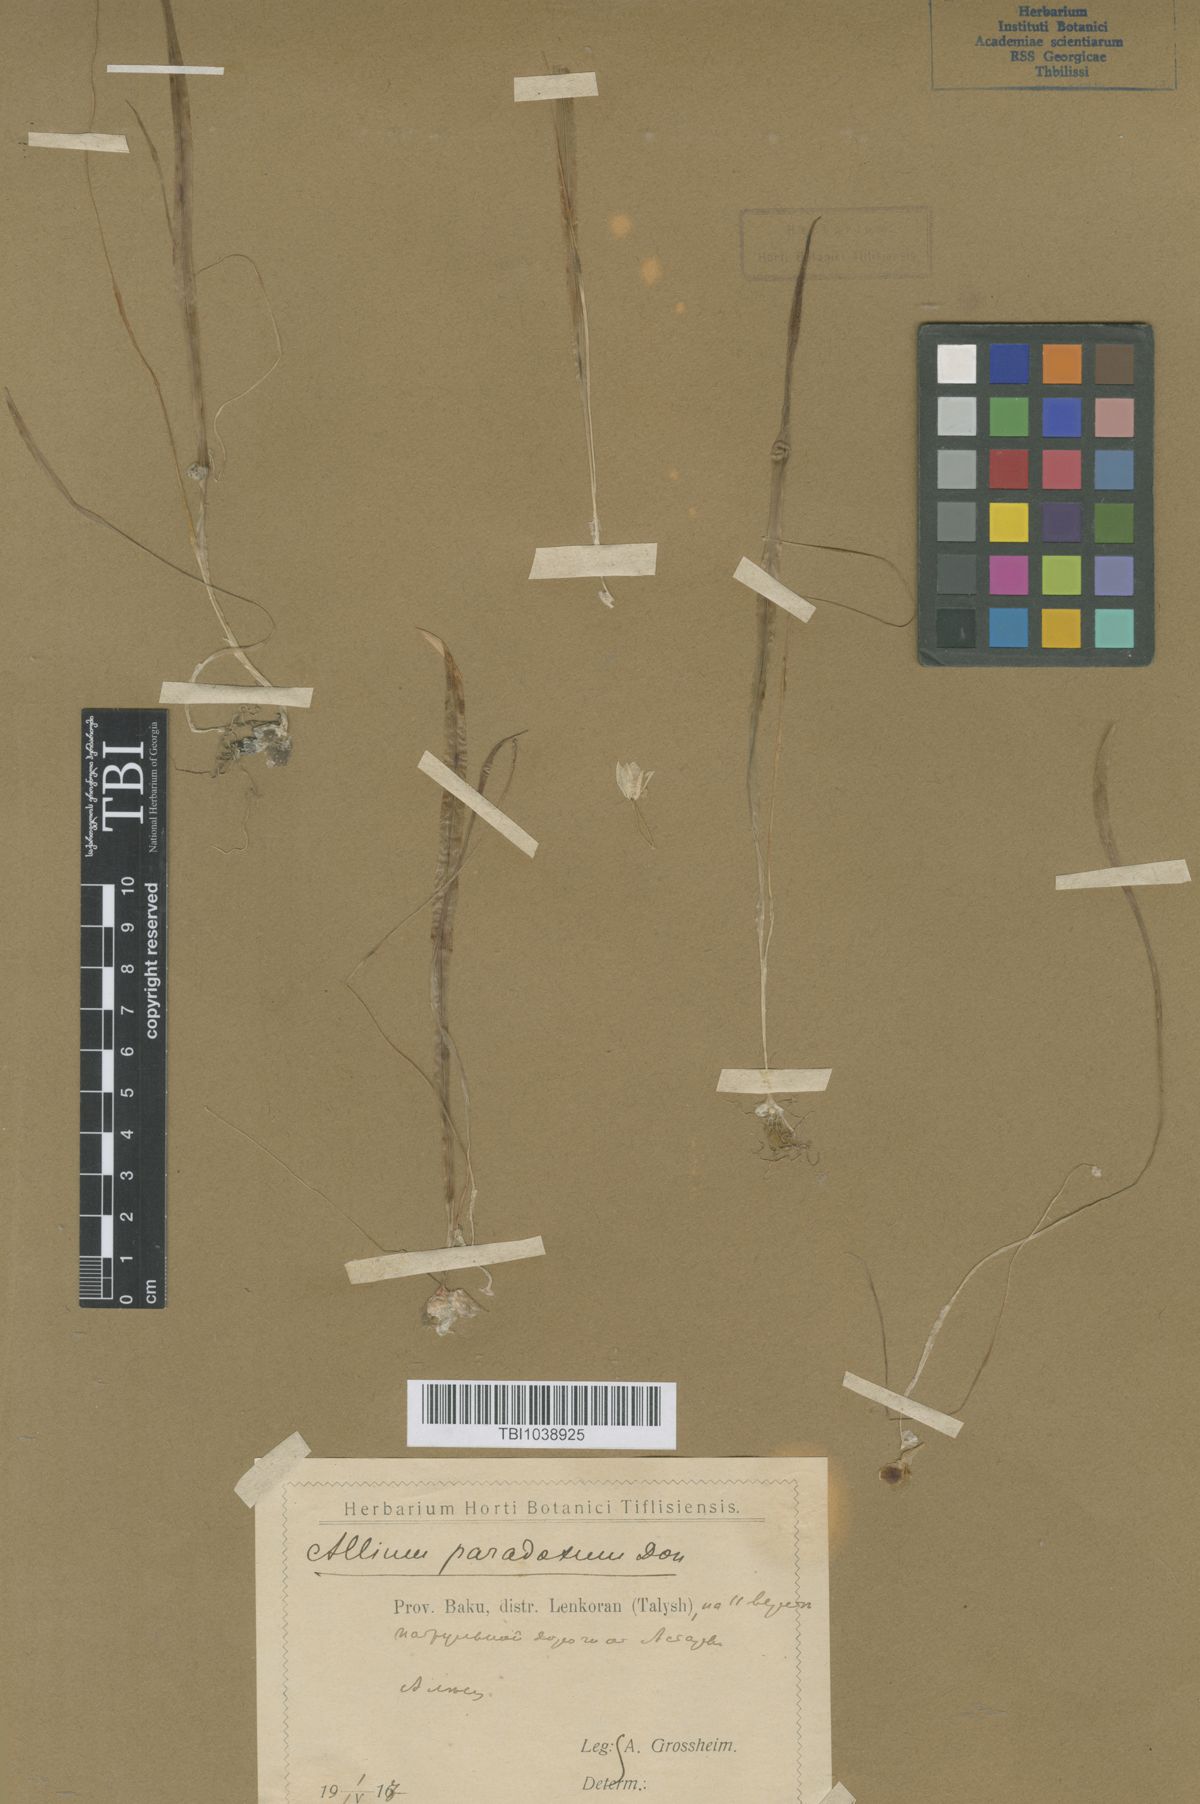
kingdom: Plantae
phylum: Tracheophyta
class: Liliopsida
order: Asparagales
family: Amaryllidaceae
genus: Allium
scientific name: Allium paradoxum
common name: Few-flowered garlic
